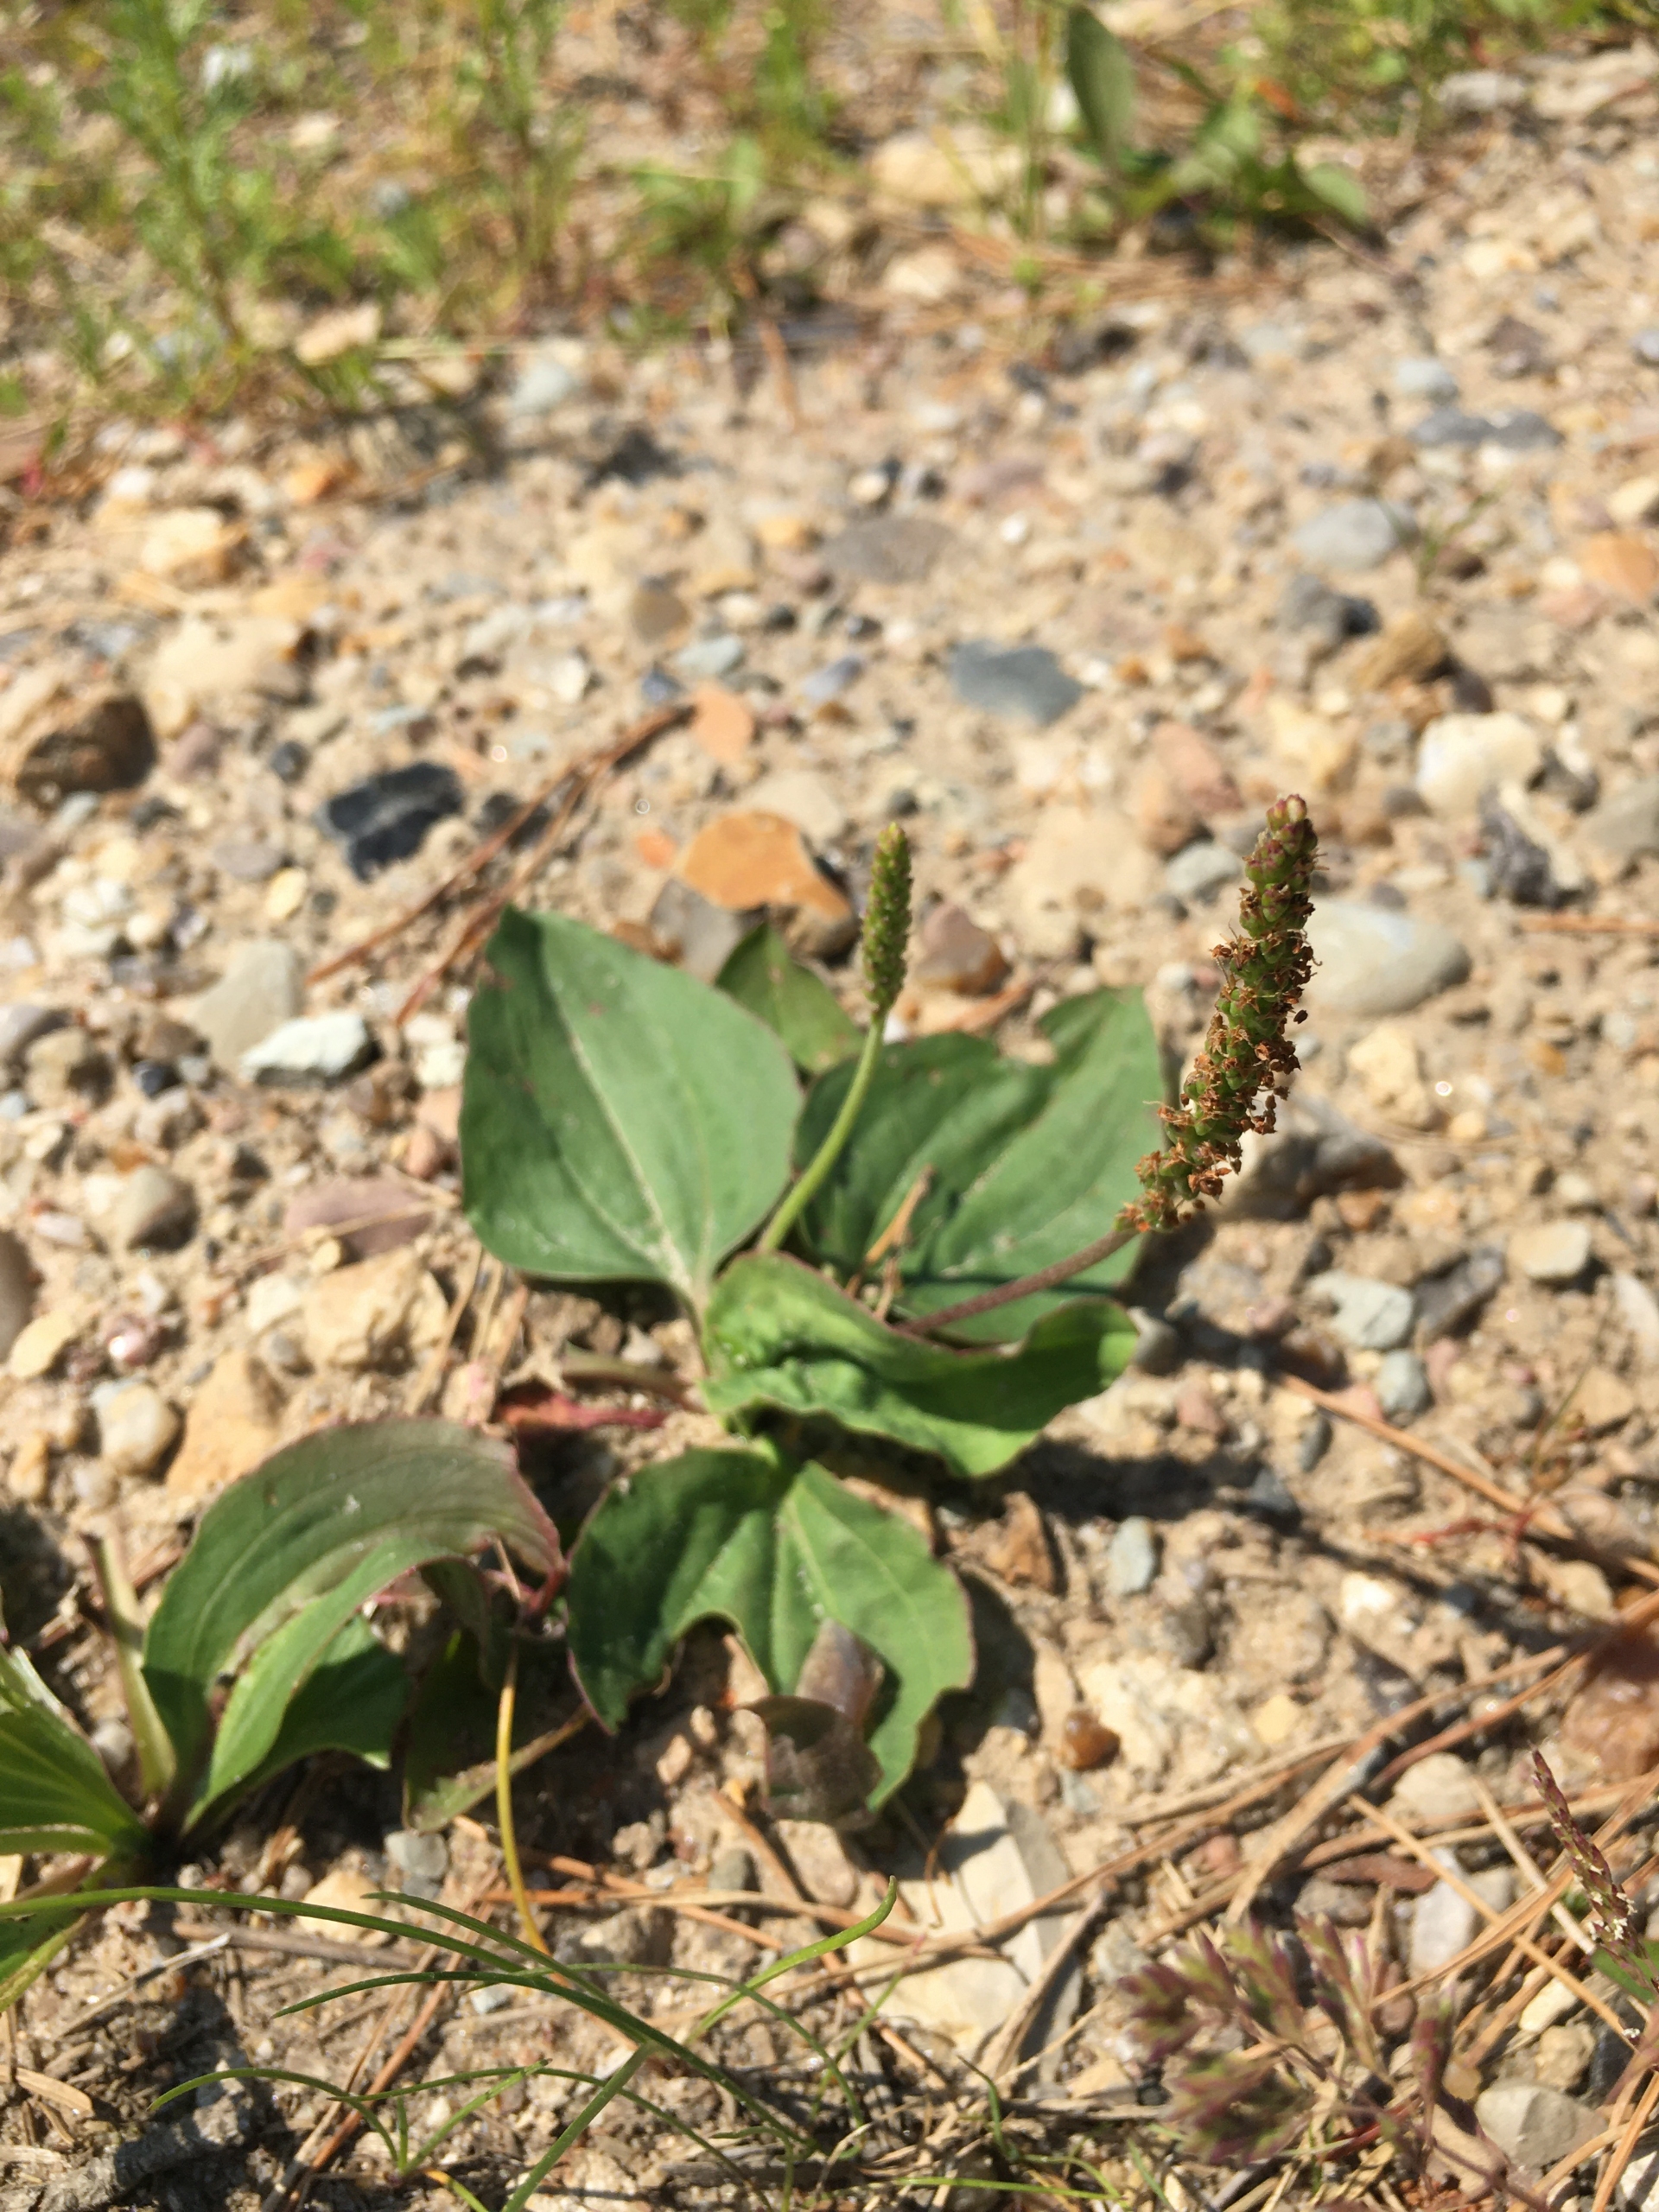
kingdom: Plantae
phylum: Tracheophyta
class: Magnoliopsida
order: Lamiales
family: Plantaginaceae
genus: Plantago
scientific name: Plantago major
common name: Glat vejbred
